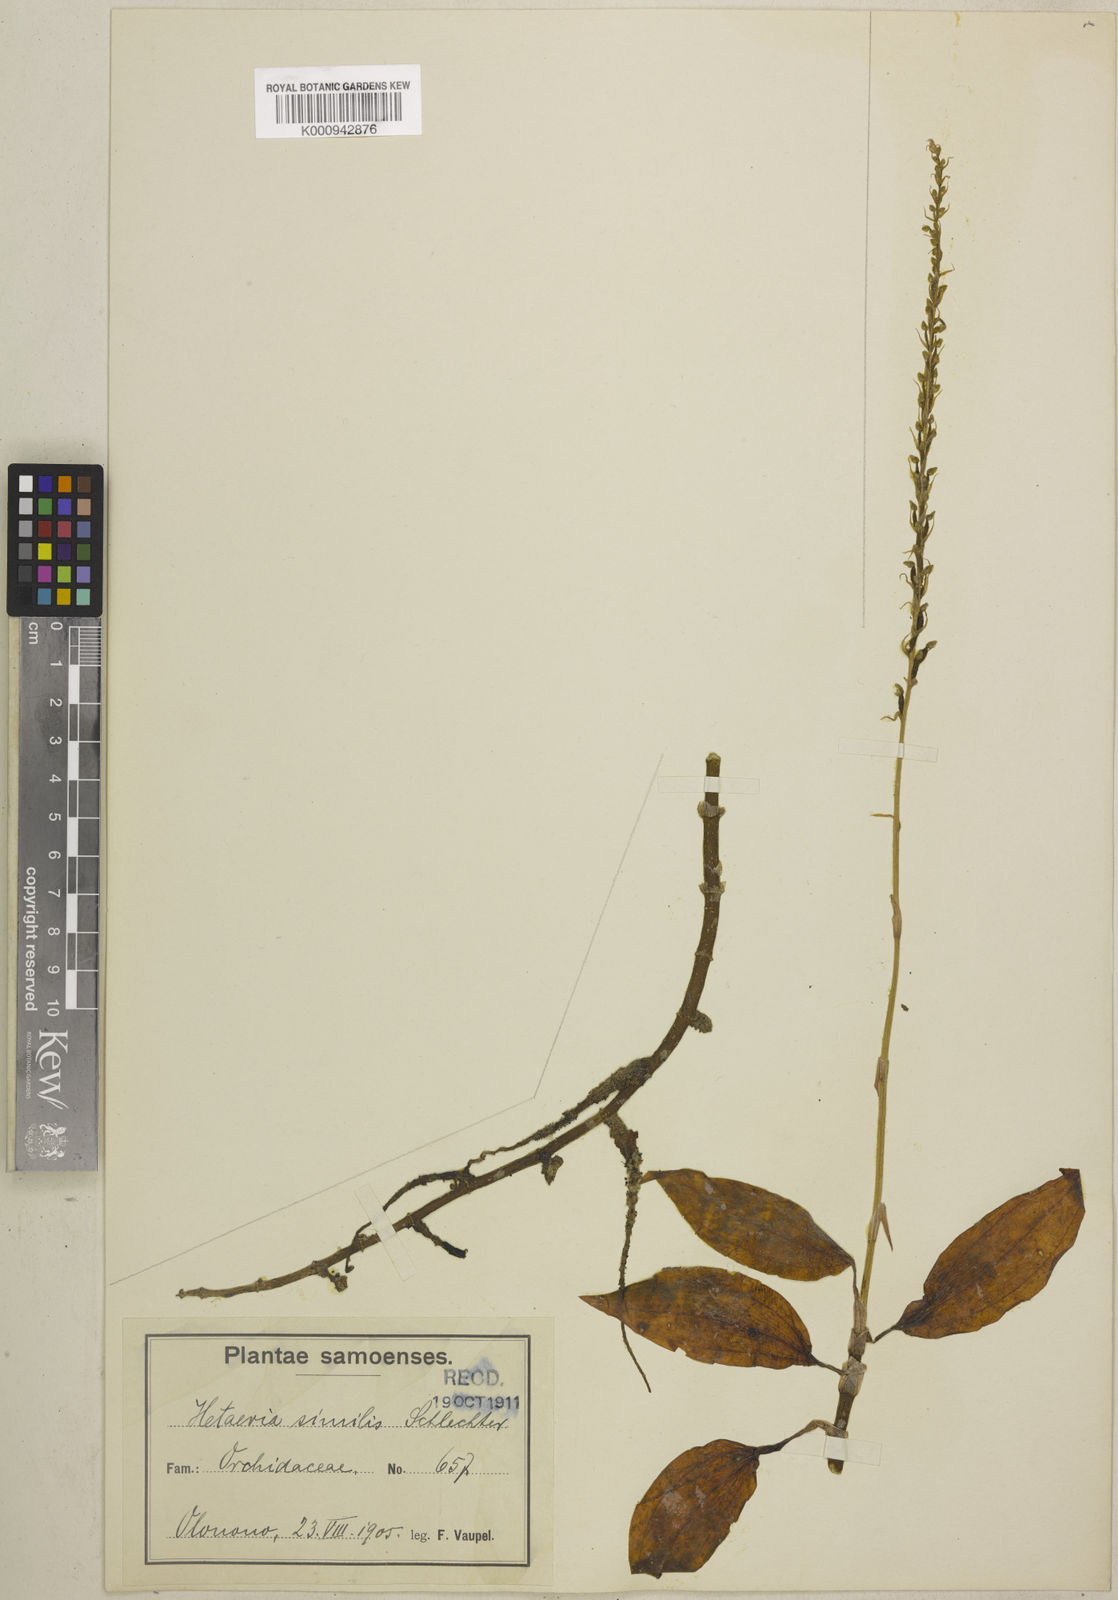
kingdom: Plantae
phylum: Tracheophyta
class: Liliopsida
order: Asparagales
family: Orchidaceae
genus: Hetaeria
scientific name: Hetaeria oblongifolia
